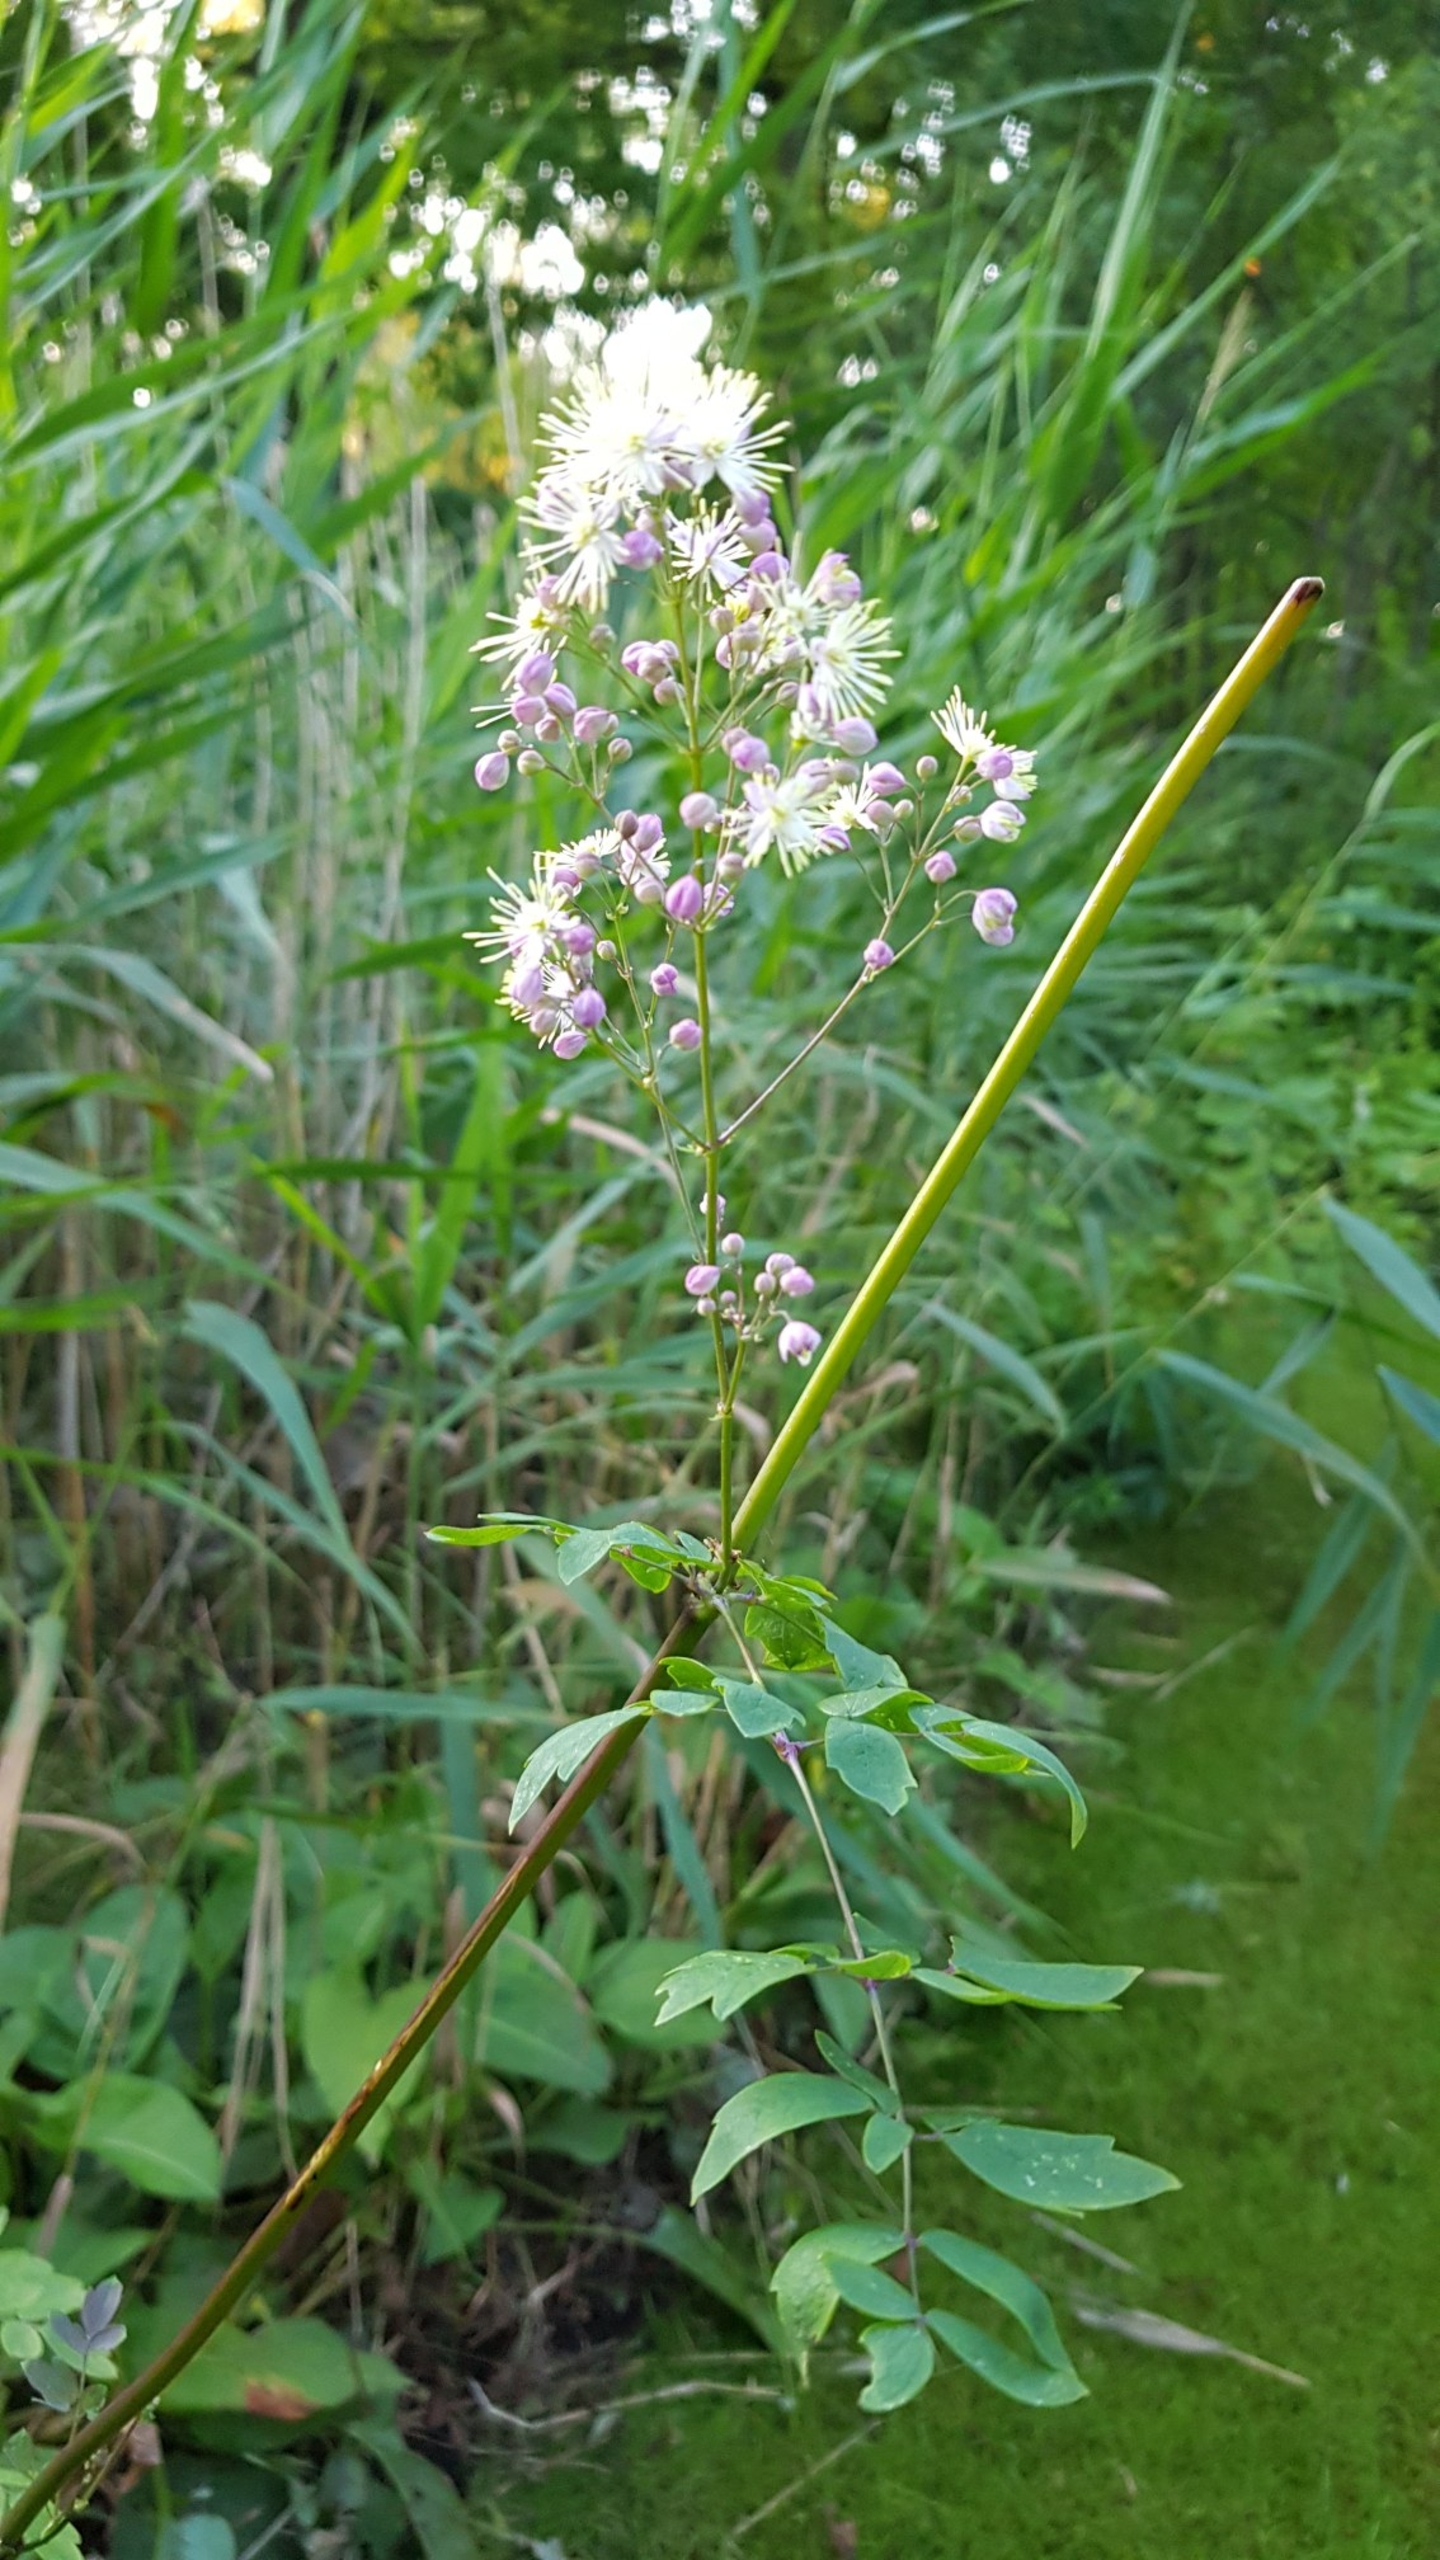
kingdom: Plantae
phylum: Tracheophyta
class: Magnoliopsida
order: Ranunculales
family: Ranunculaceae
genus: Thalictrum
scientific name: Thalictrum aquilegiifolium
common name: Akeleje-frøstjerne
